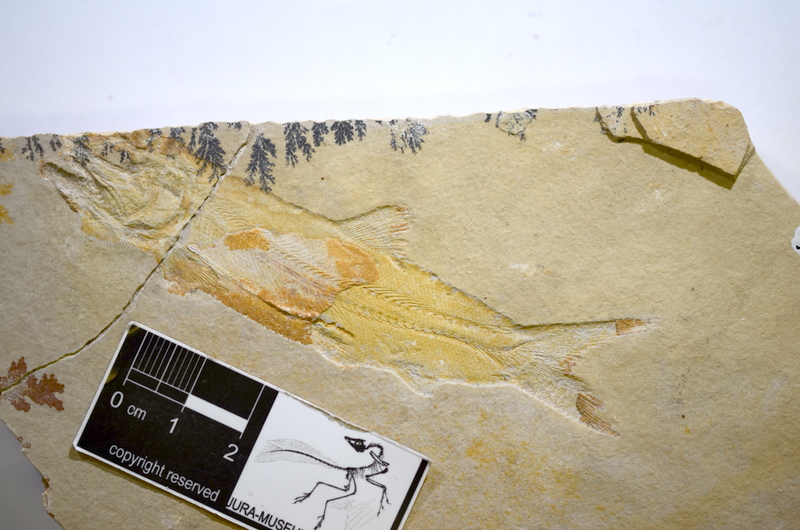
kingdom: Animalia
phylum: Chordata
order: Amiiformes
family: Caturidae
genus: Amblysemius
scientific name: Amblysemius pachyurus
